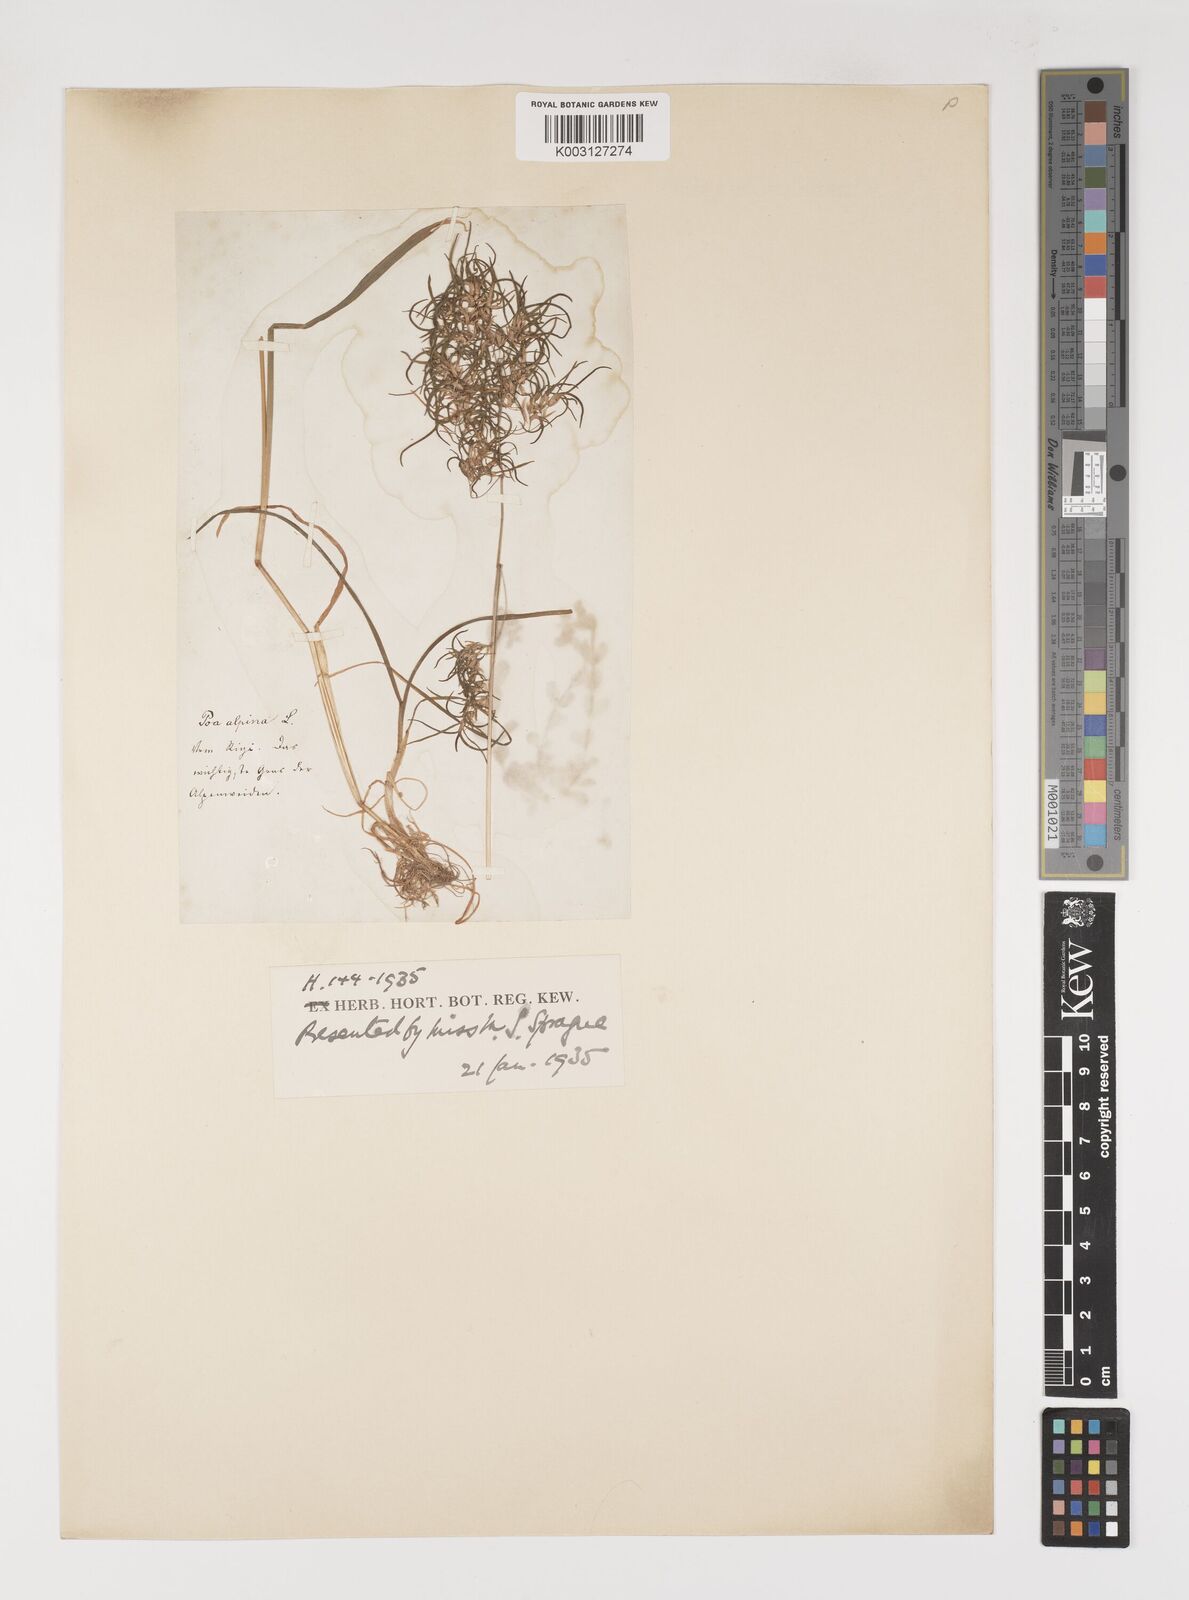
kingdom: Plantae
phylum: Tracheophyta
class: Liliopsida
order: Poales
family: Poaceae
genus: Poa
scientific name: Poa alpina
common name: Alpine bluegrass
